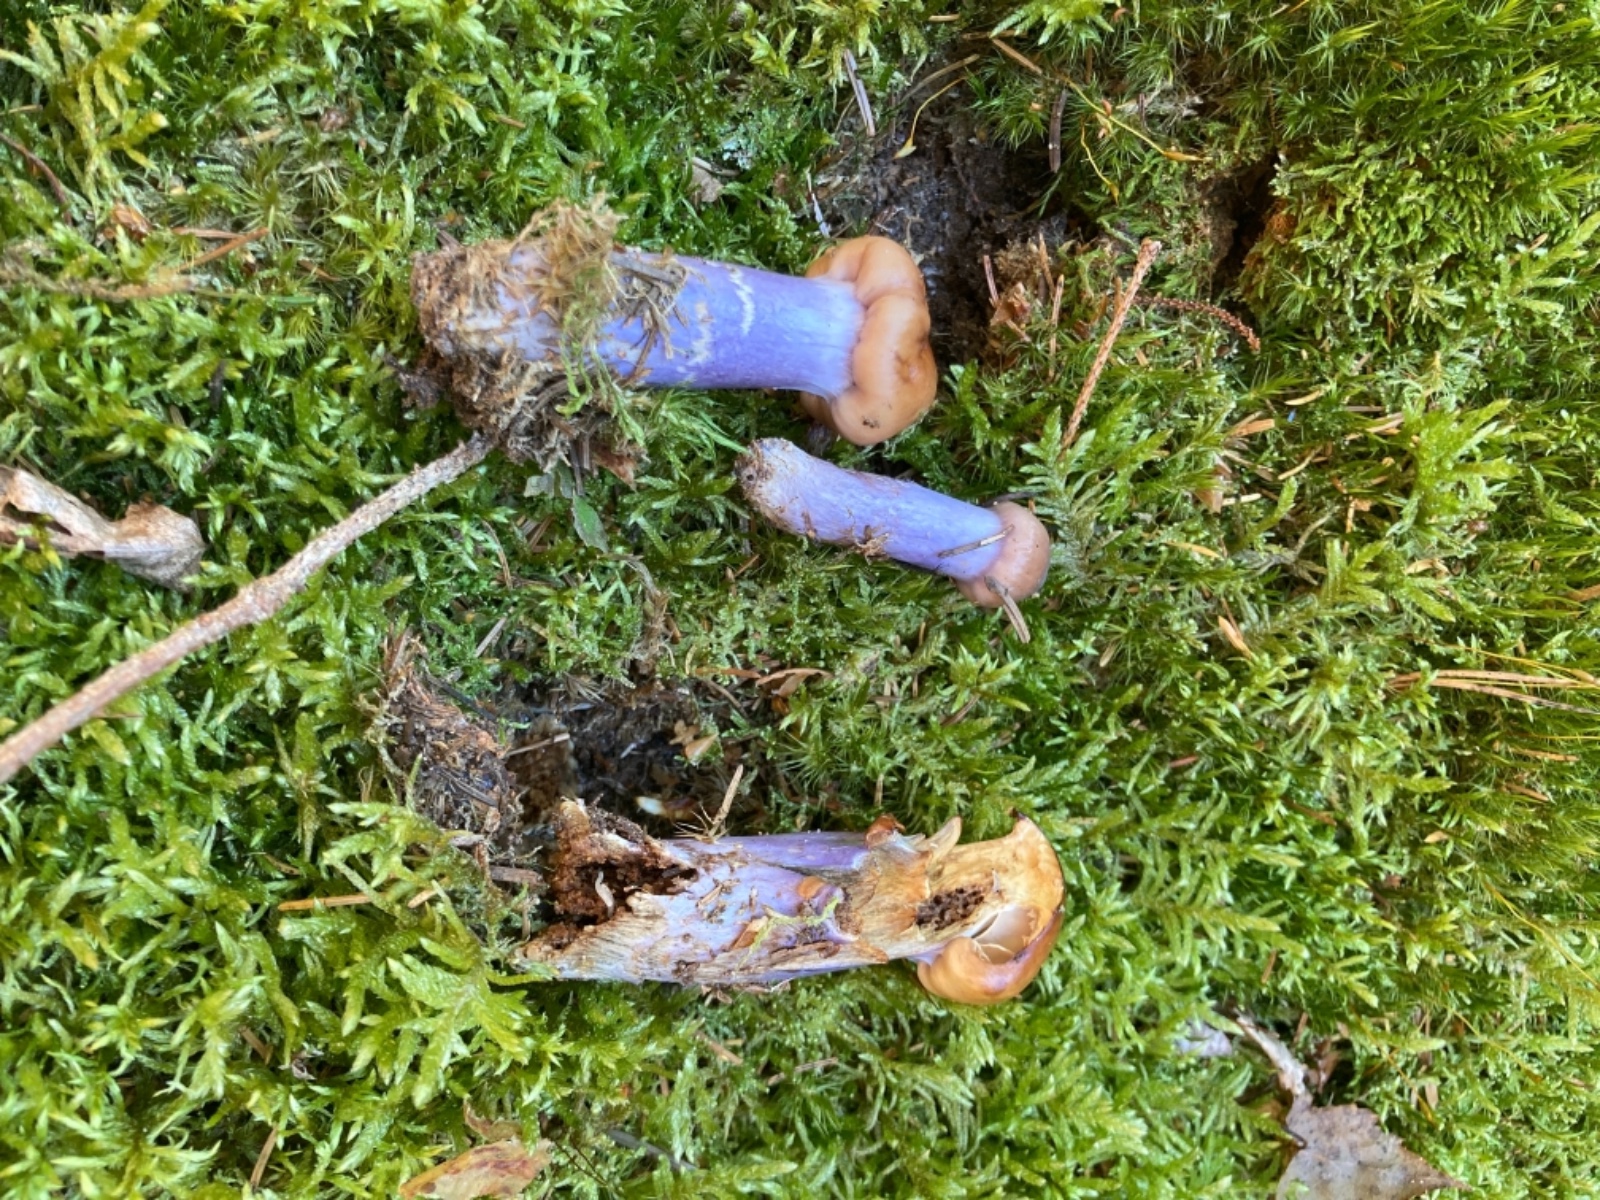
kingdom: Fungi
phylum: Basidiomycota
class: Agaricomycetes
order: Agaricales
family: Cortinariaceae
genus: Cortinarius
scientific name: Cortinarius collinitus
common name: spættet slørhat
